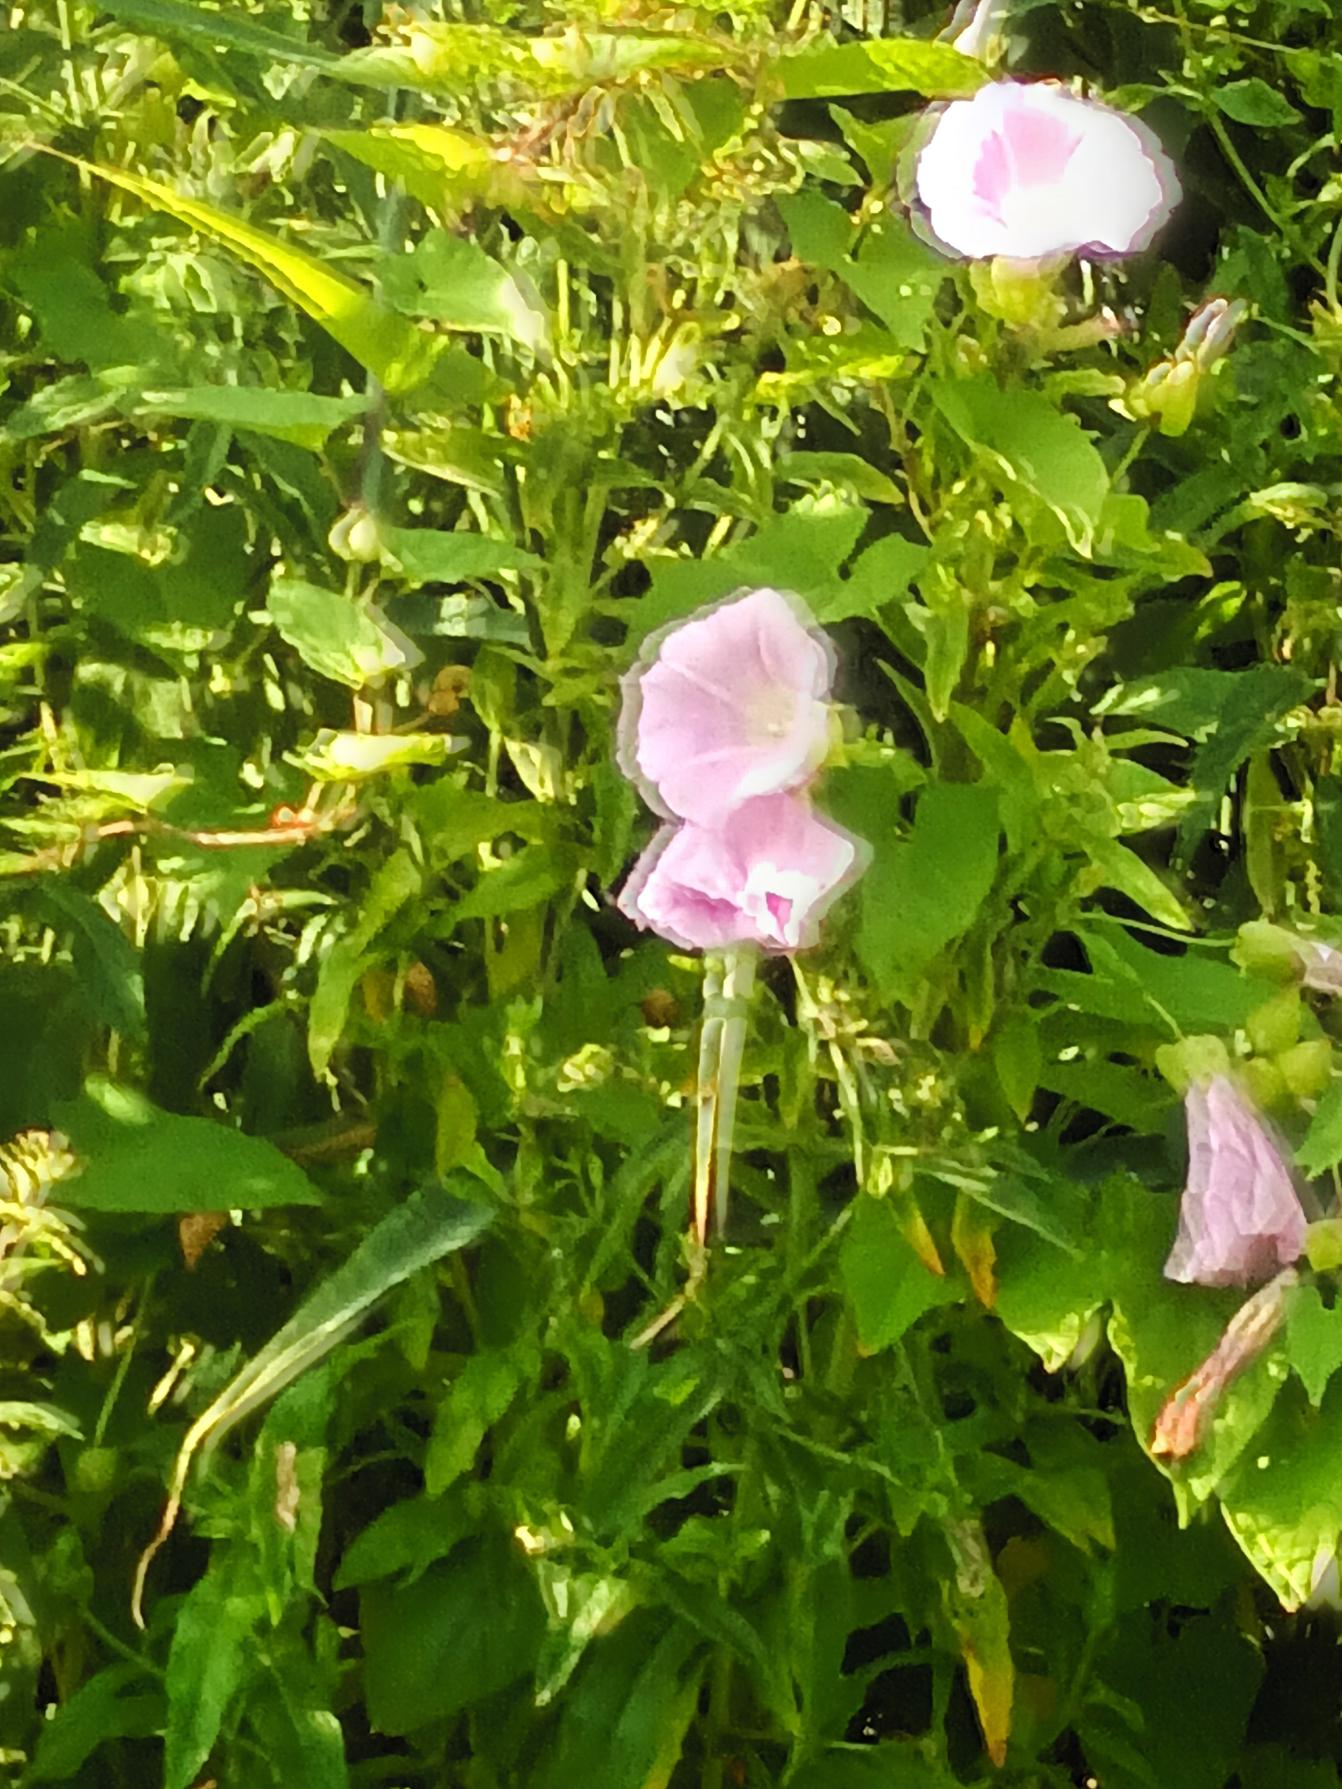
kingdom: Plantae
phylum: Tracheophyta
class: Magnoliopsida
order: Solanales
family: Convolvulaceae
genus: Calystegia
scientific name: Calystegia pulchra
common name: Have-snerle
